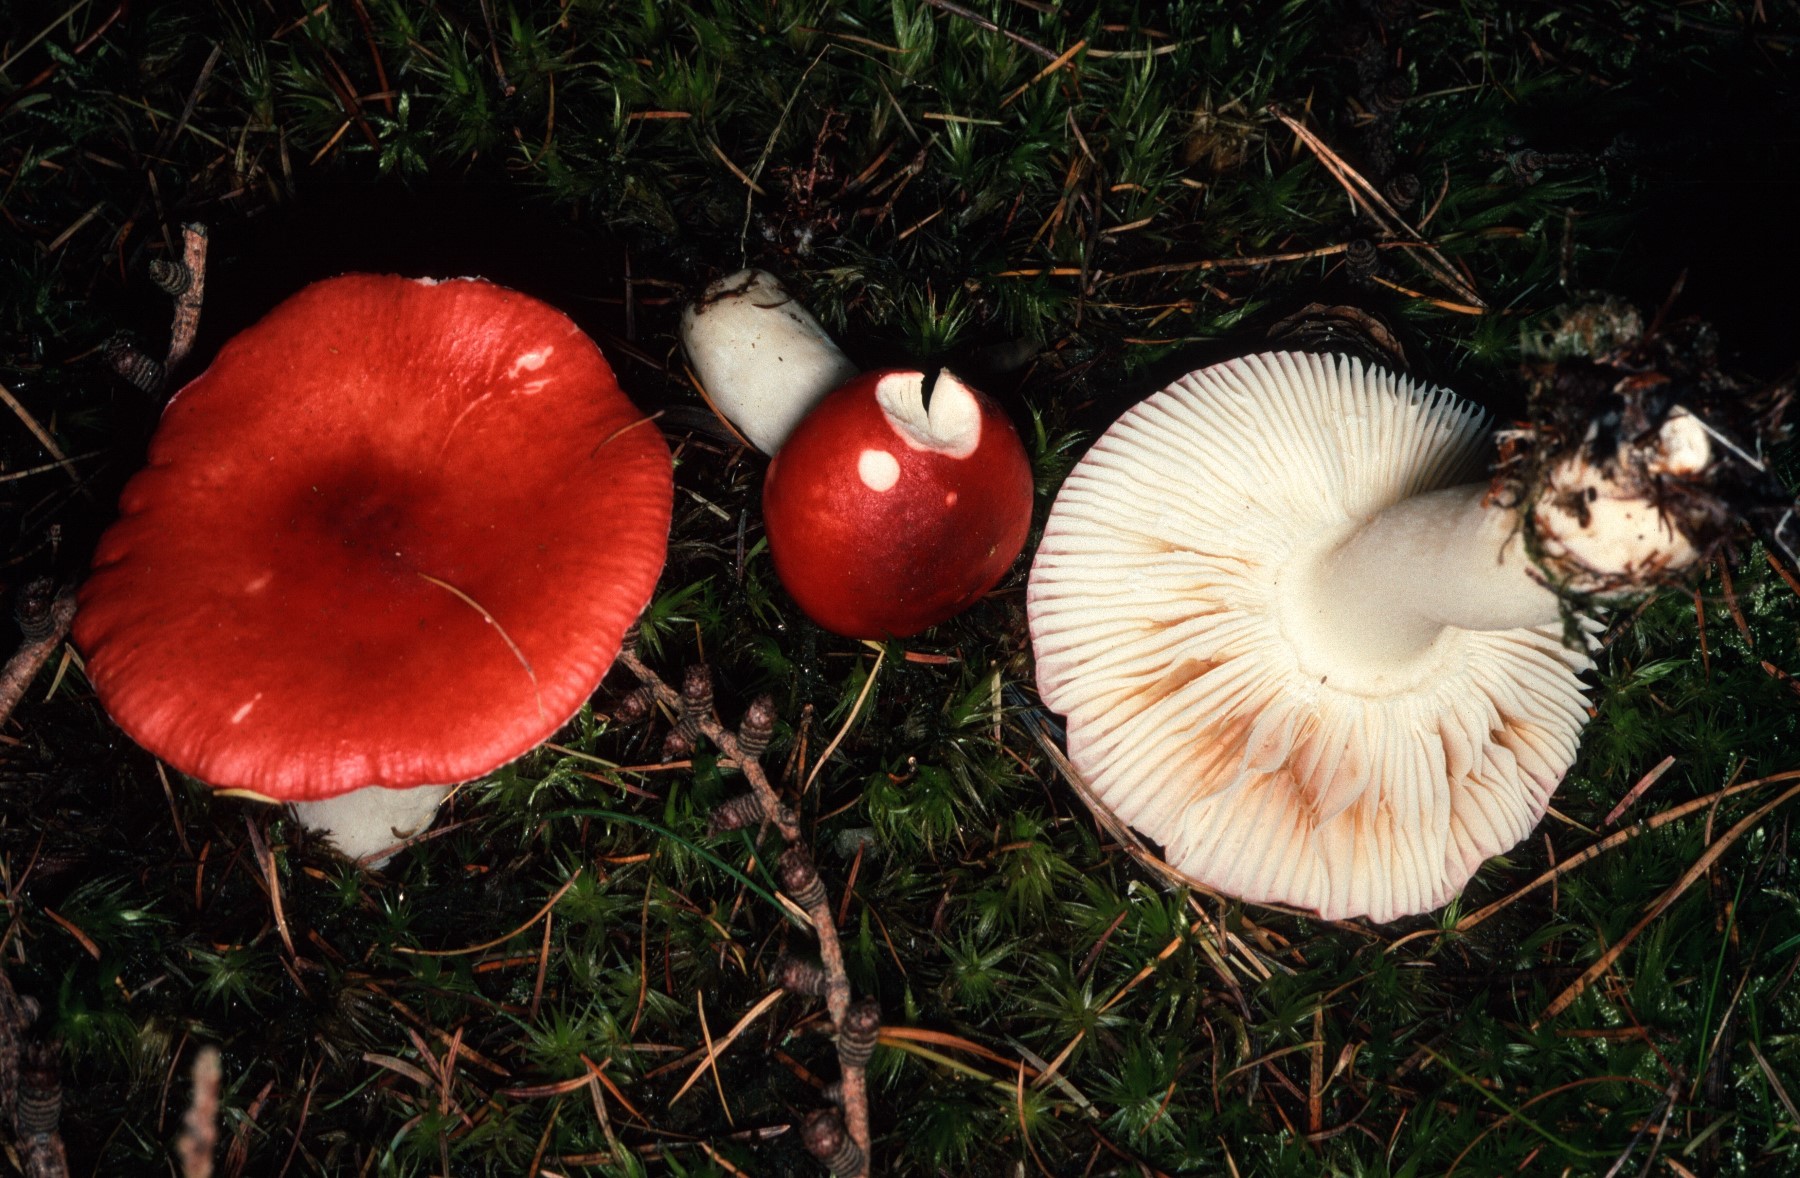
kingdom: Fungi
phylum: Basidiomycota
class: Agaricomycetes
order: Russulales
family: Russulaceae
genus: Russula
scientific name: Russula emetica
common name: stor gift-skørhat
